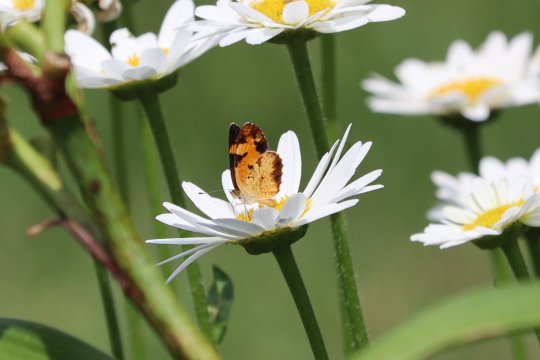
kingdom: Animalia
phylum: Arthropoda
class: Insecta
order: Lepidoptera
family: Nymphalidae
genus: Phyciodes
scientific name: Phyciodes
